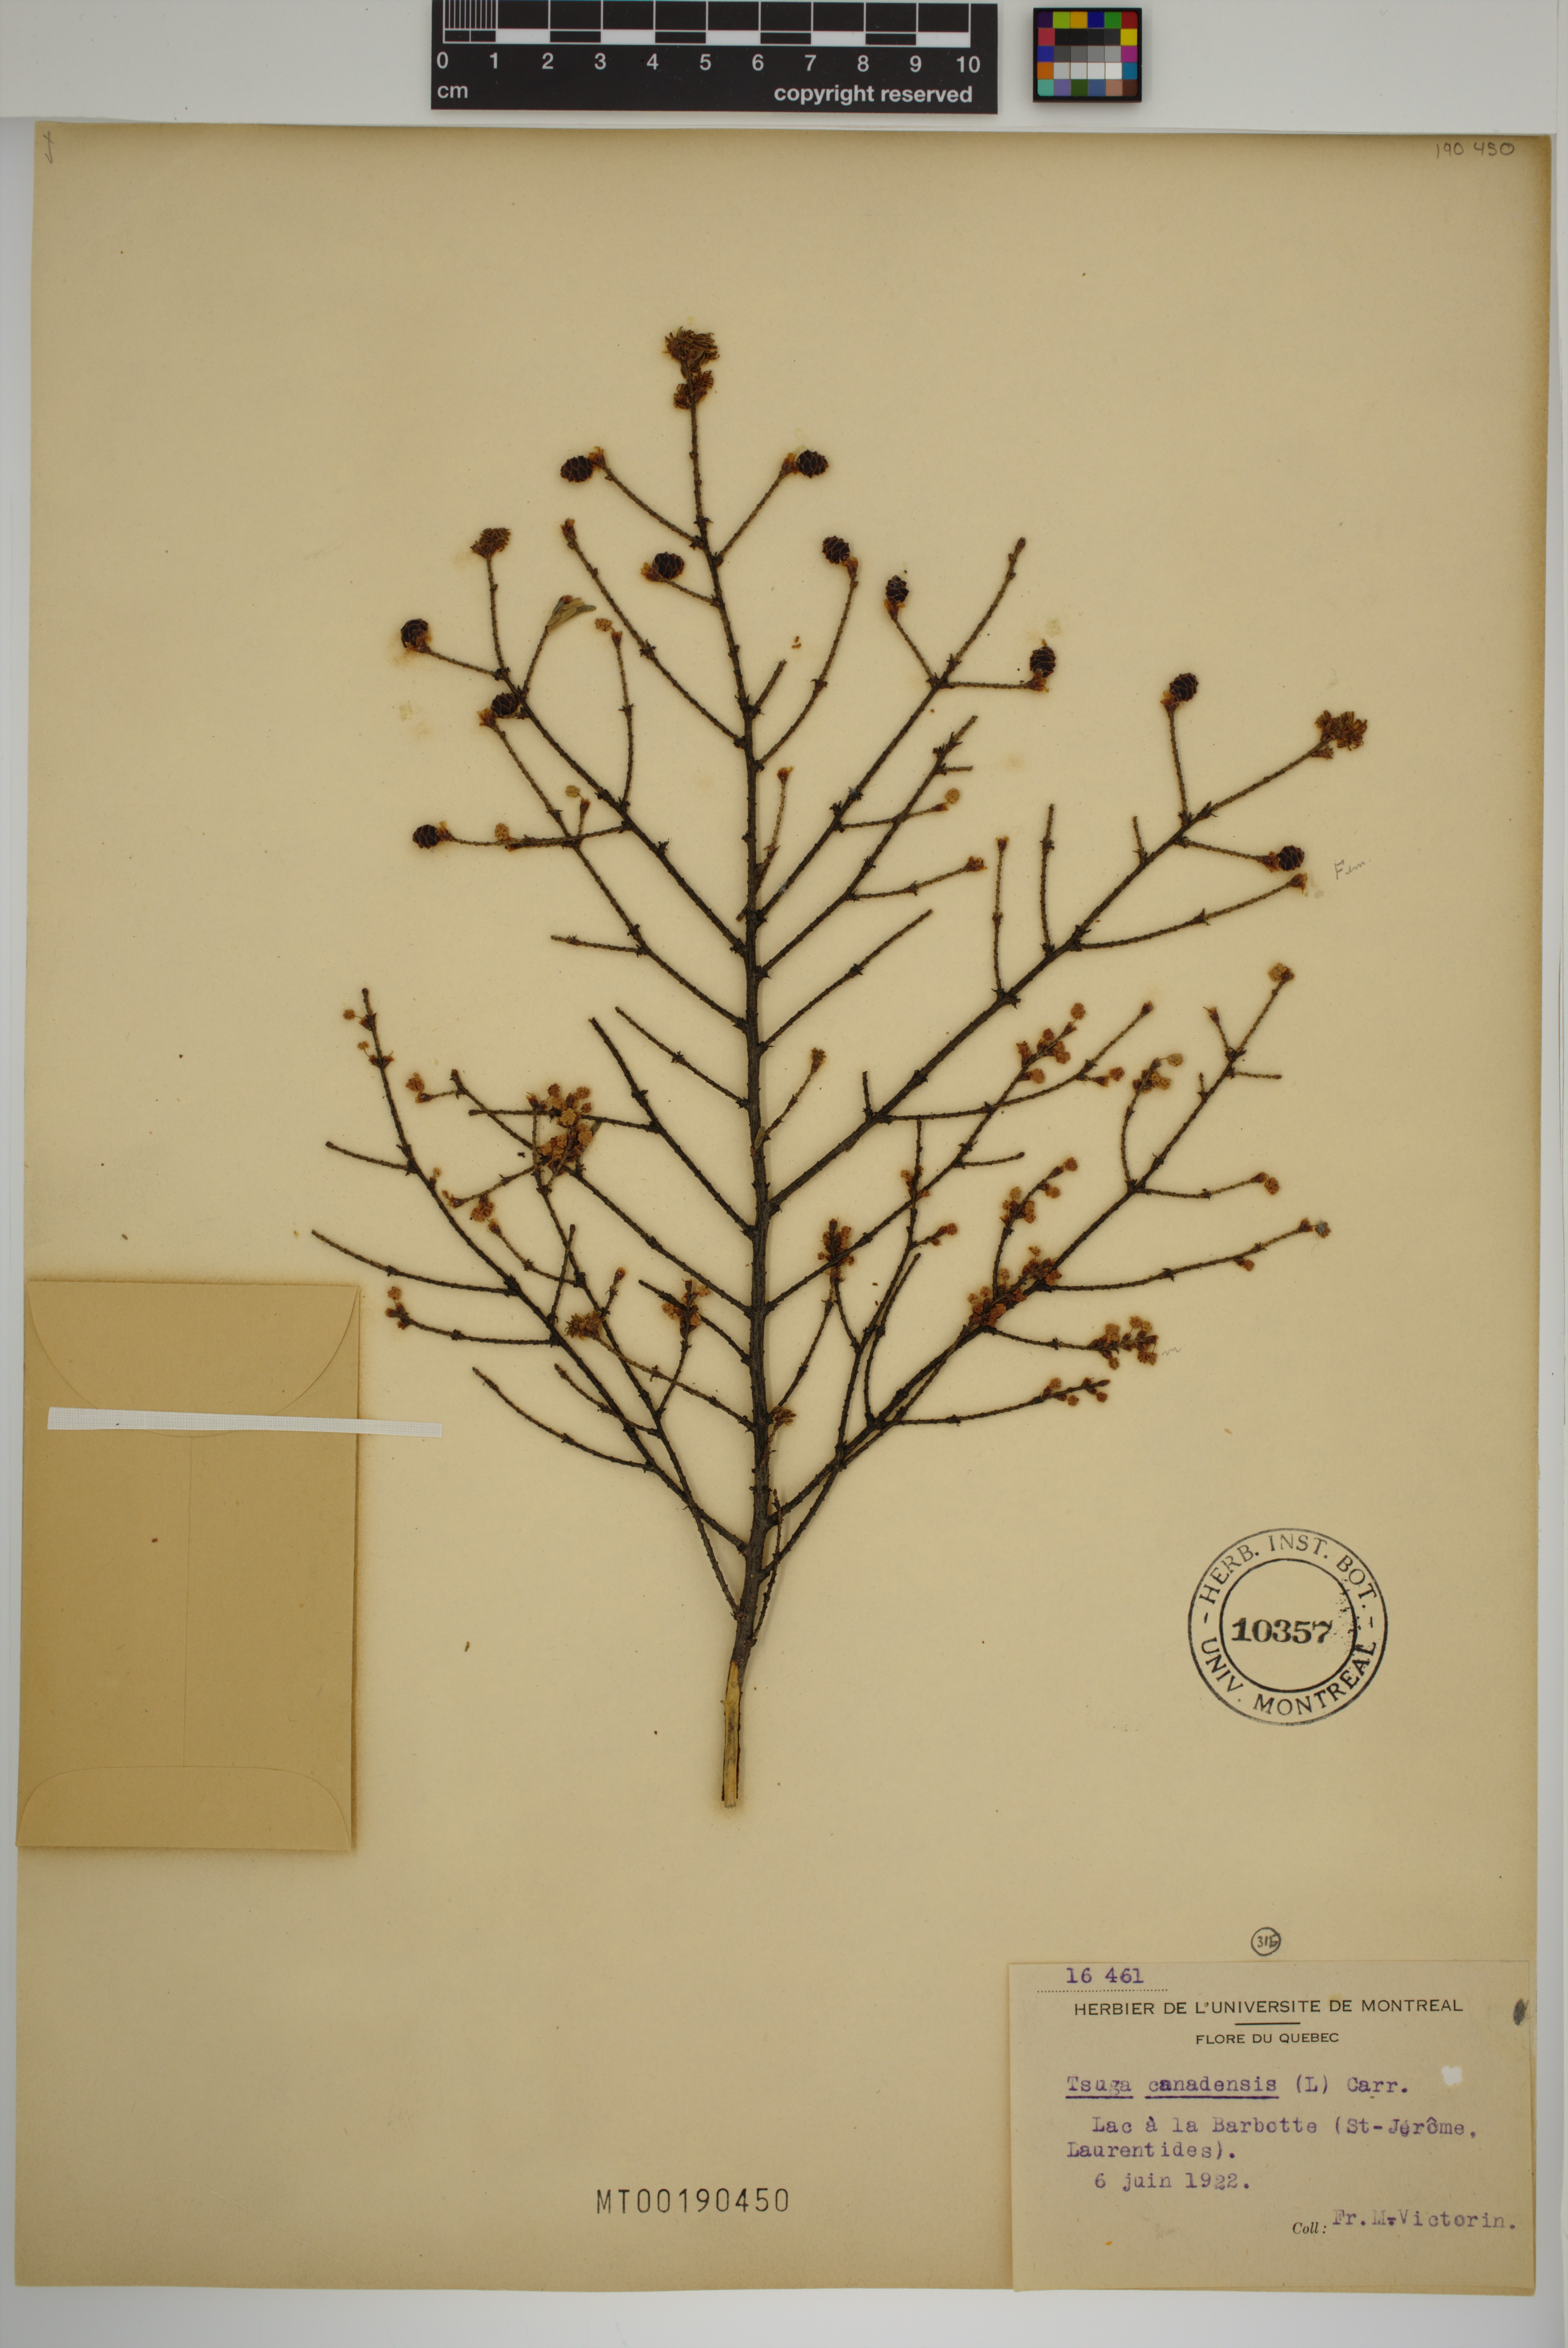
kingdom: Plantae
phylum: Tracheophyta
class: Pinopsida
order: Pinales
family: Pinaceae
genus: Tsuga
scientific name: Tsuga canadensis
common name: Eastern hemlock
